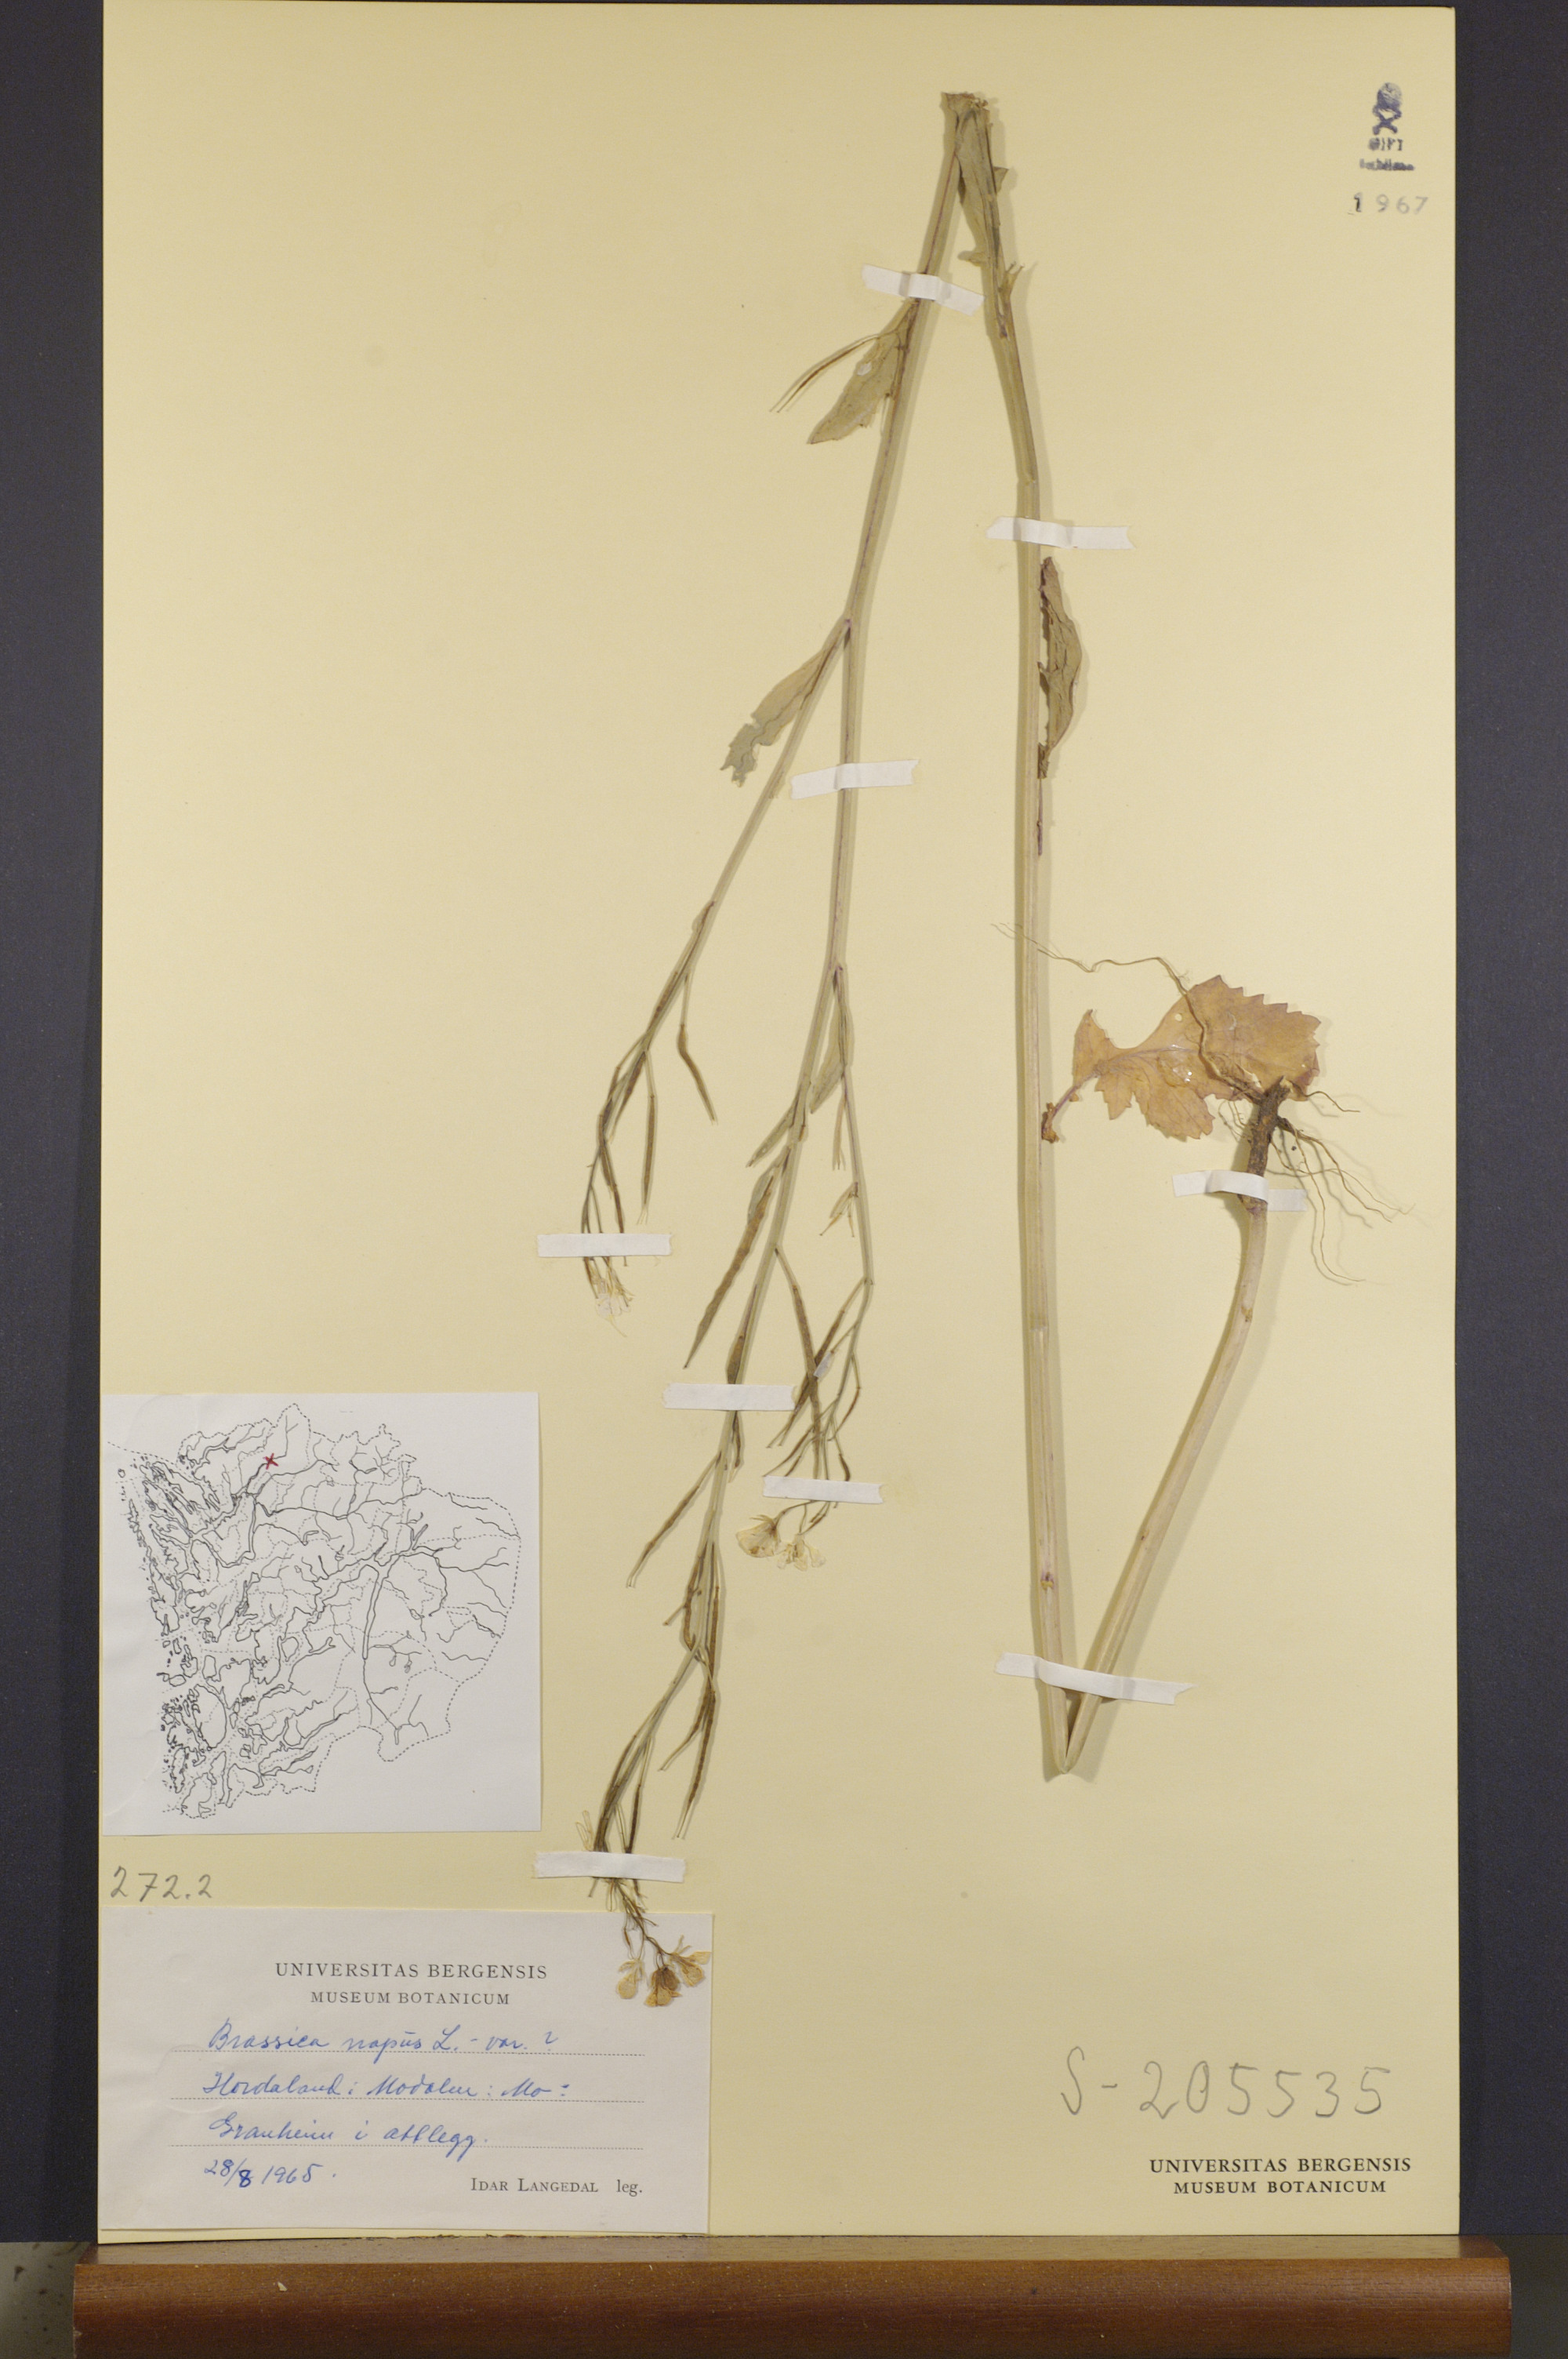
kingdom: Plantae
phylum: Tracheophyta
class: Magnoliopsida
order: Brassicales
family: Brassicaceae
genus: Brassica
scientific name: Brassica napus
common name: Rape
